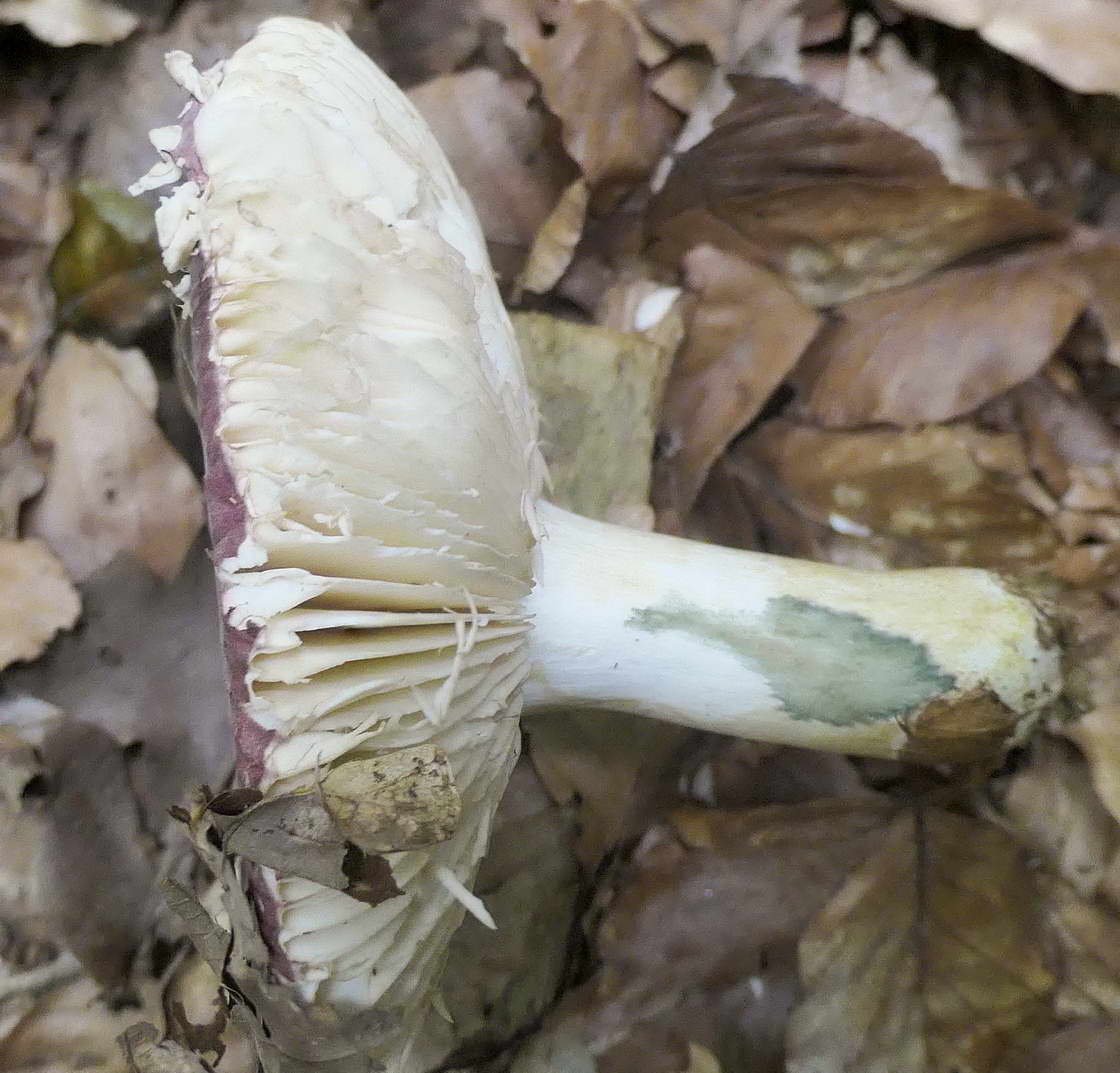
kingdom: Fungi
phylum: Basidiomycota
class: Agaricomycetes
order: Russulales
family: Russulaceae
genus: Russula
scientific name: Russula faginea
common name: bøge-skørhat
